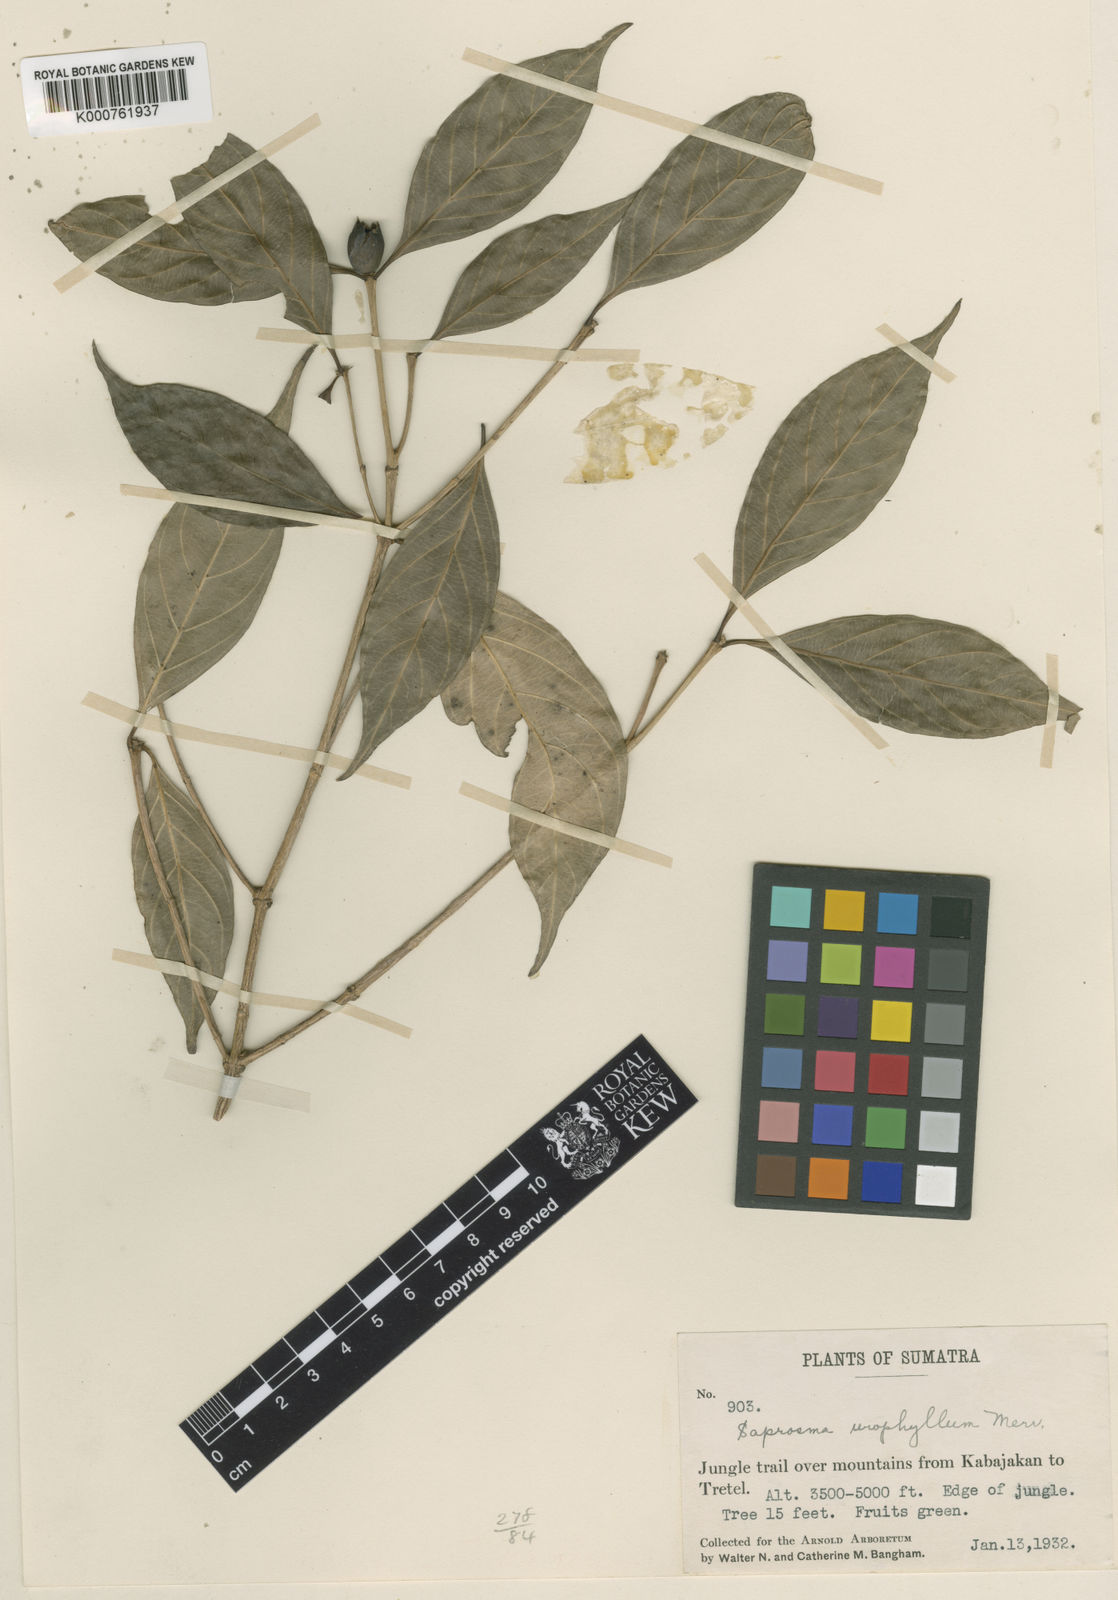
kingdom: Plantae
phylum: Tracheophyta
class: Magnoliopsida
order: Gentianales
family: Rubiaceae
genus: Saprosma
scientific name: Saprosma urophylla
